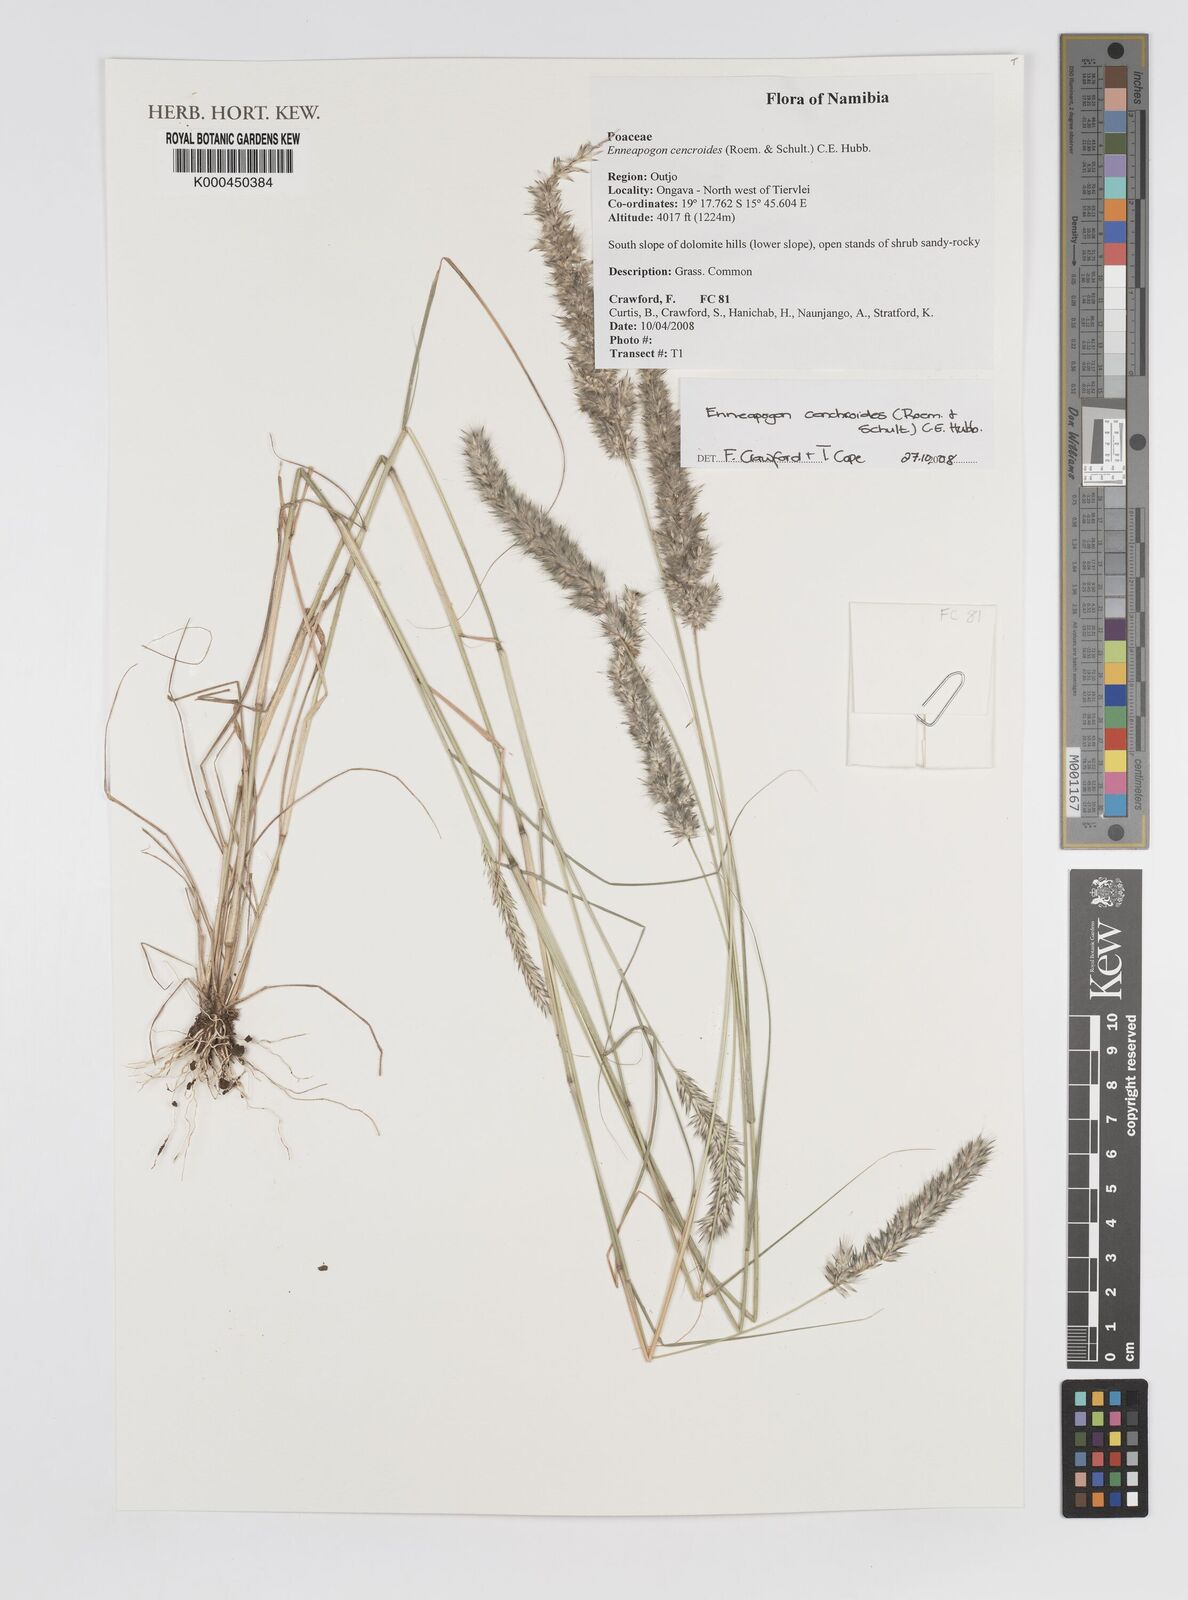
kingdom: Plantae
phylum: Tracheophyta
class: Liliopsida
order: Poales
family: Poaceae
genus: Enneapogon
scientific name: Enneapogon cenchroides
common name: Soft feather pappusgrass
